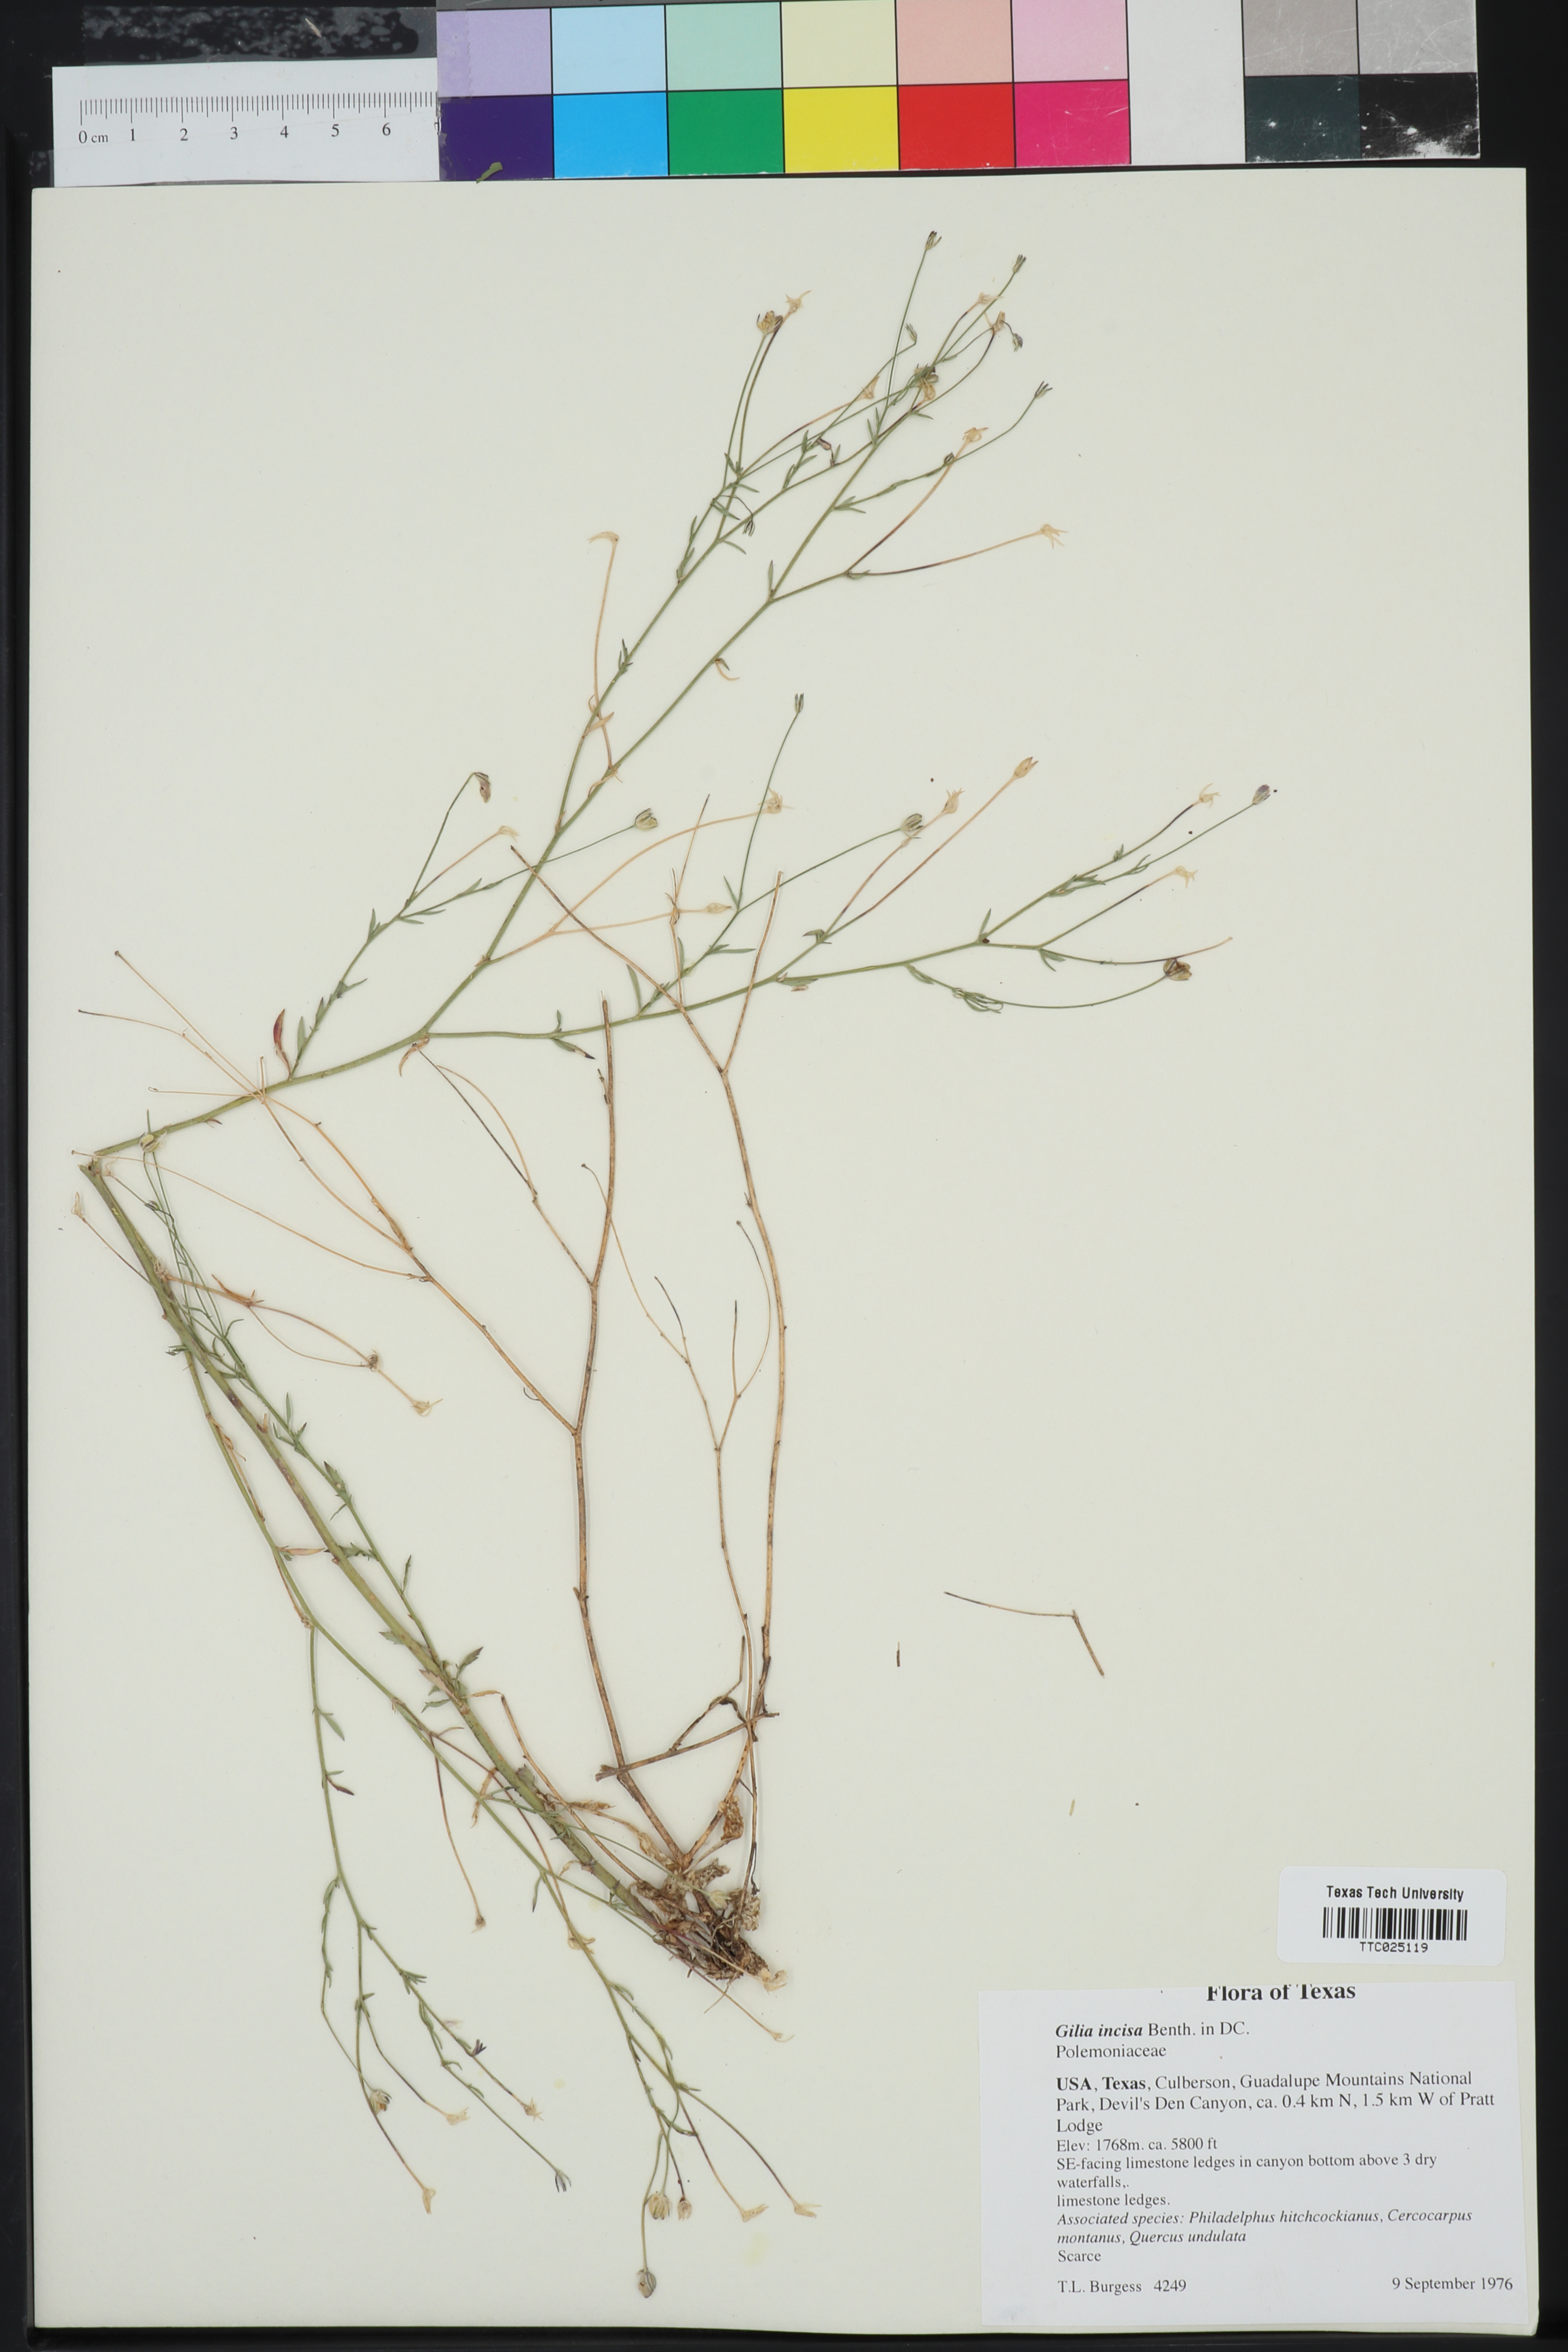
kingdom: Plantae
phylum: Tracheophyta
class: Magnoliopsida
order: Ericales
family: Polemoniaceae
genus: Giliastrum
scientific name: Giliastrum incisum
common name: Splitleaf gilia
